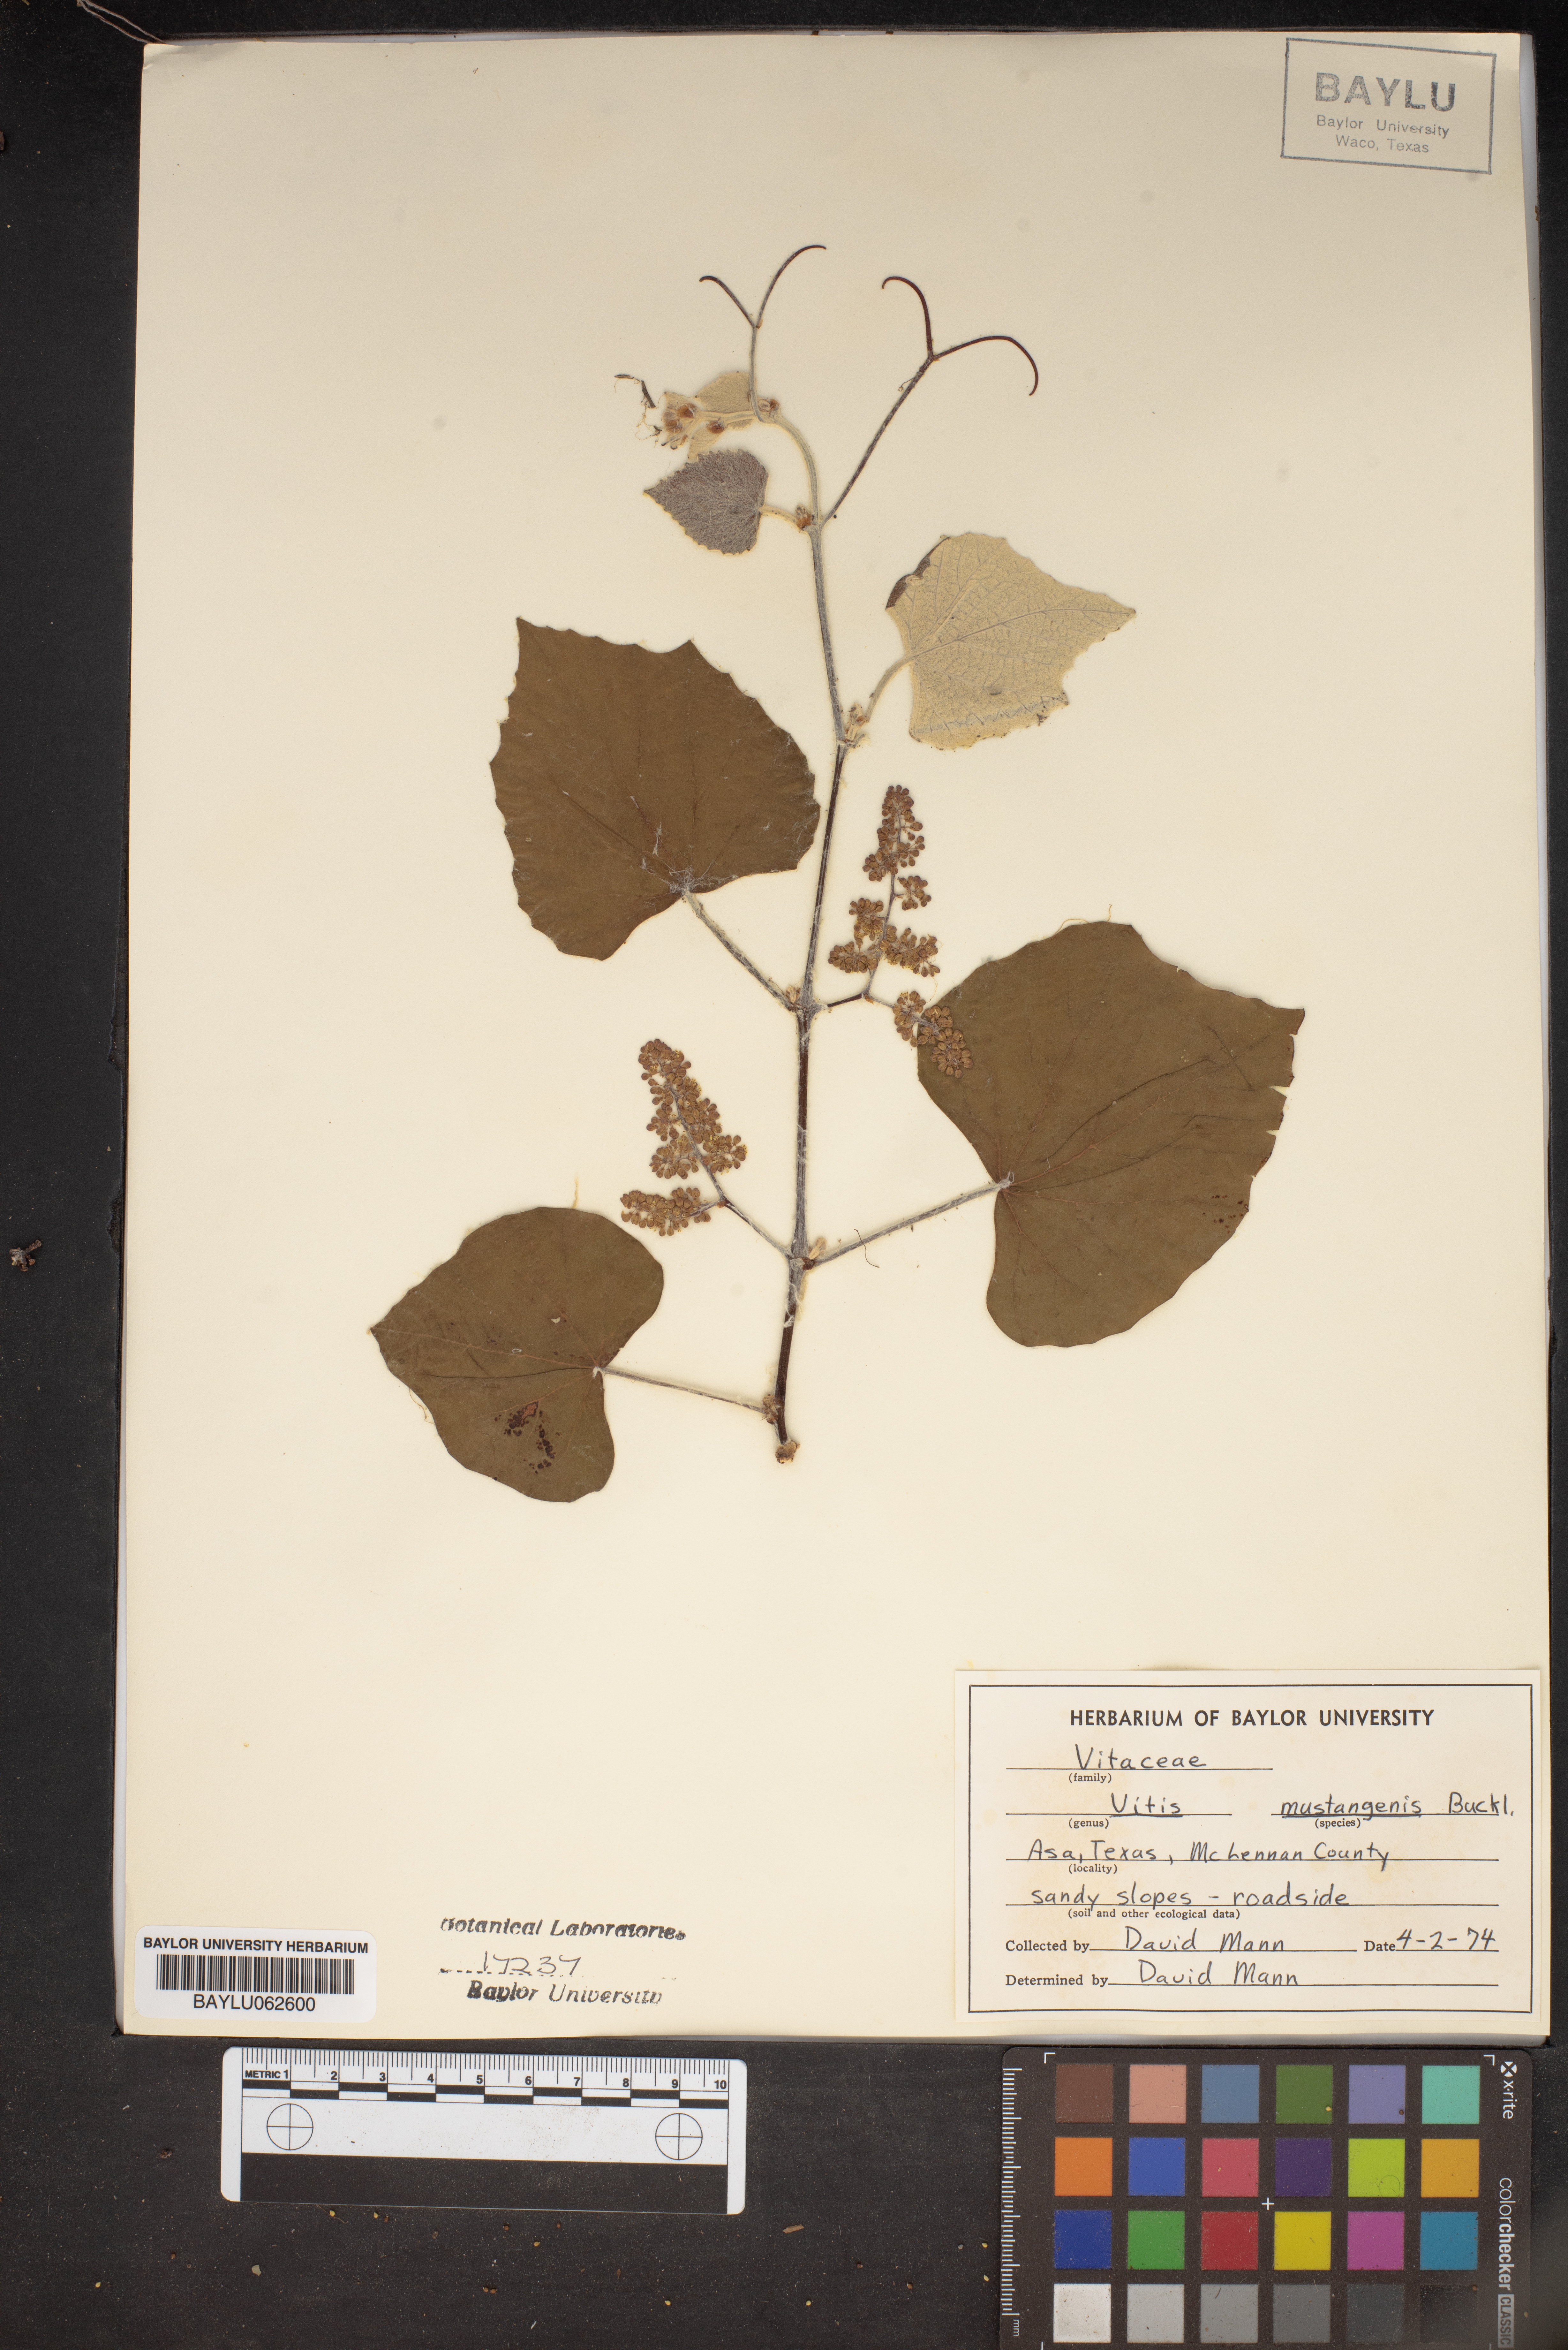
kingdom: Plantae
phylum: Tracheophyta
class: Magnoliopsida
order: Vitales
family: Vitaceae
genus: Vitis
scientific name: Vitis mustangensis
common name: Mustang grape
